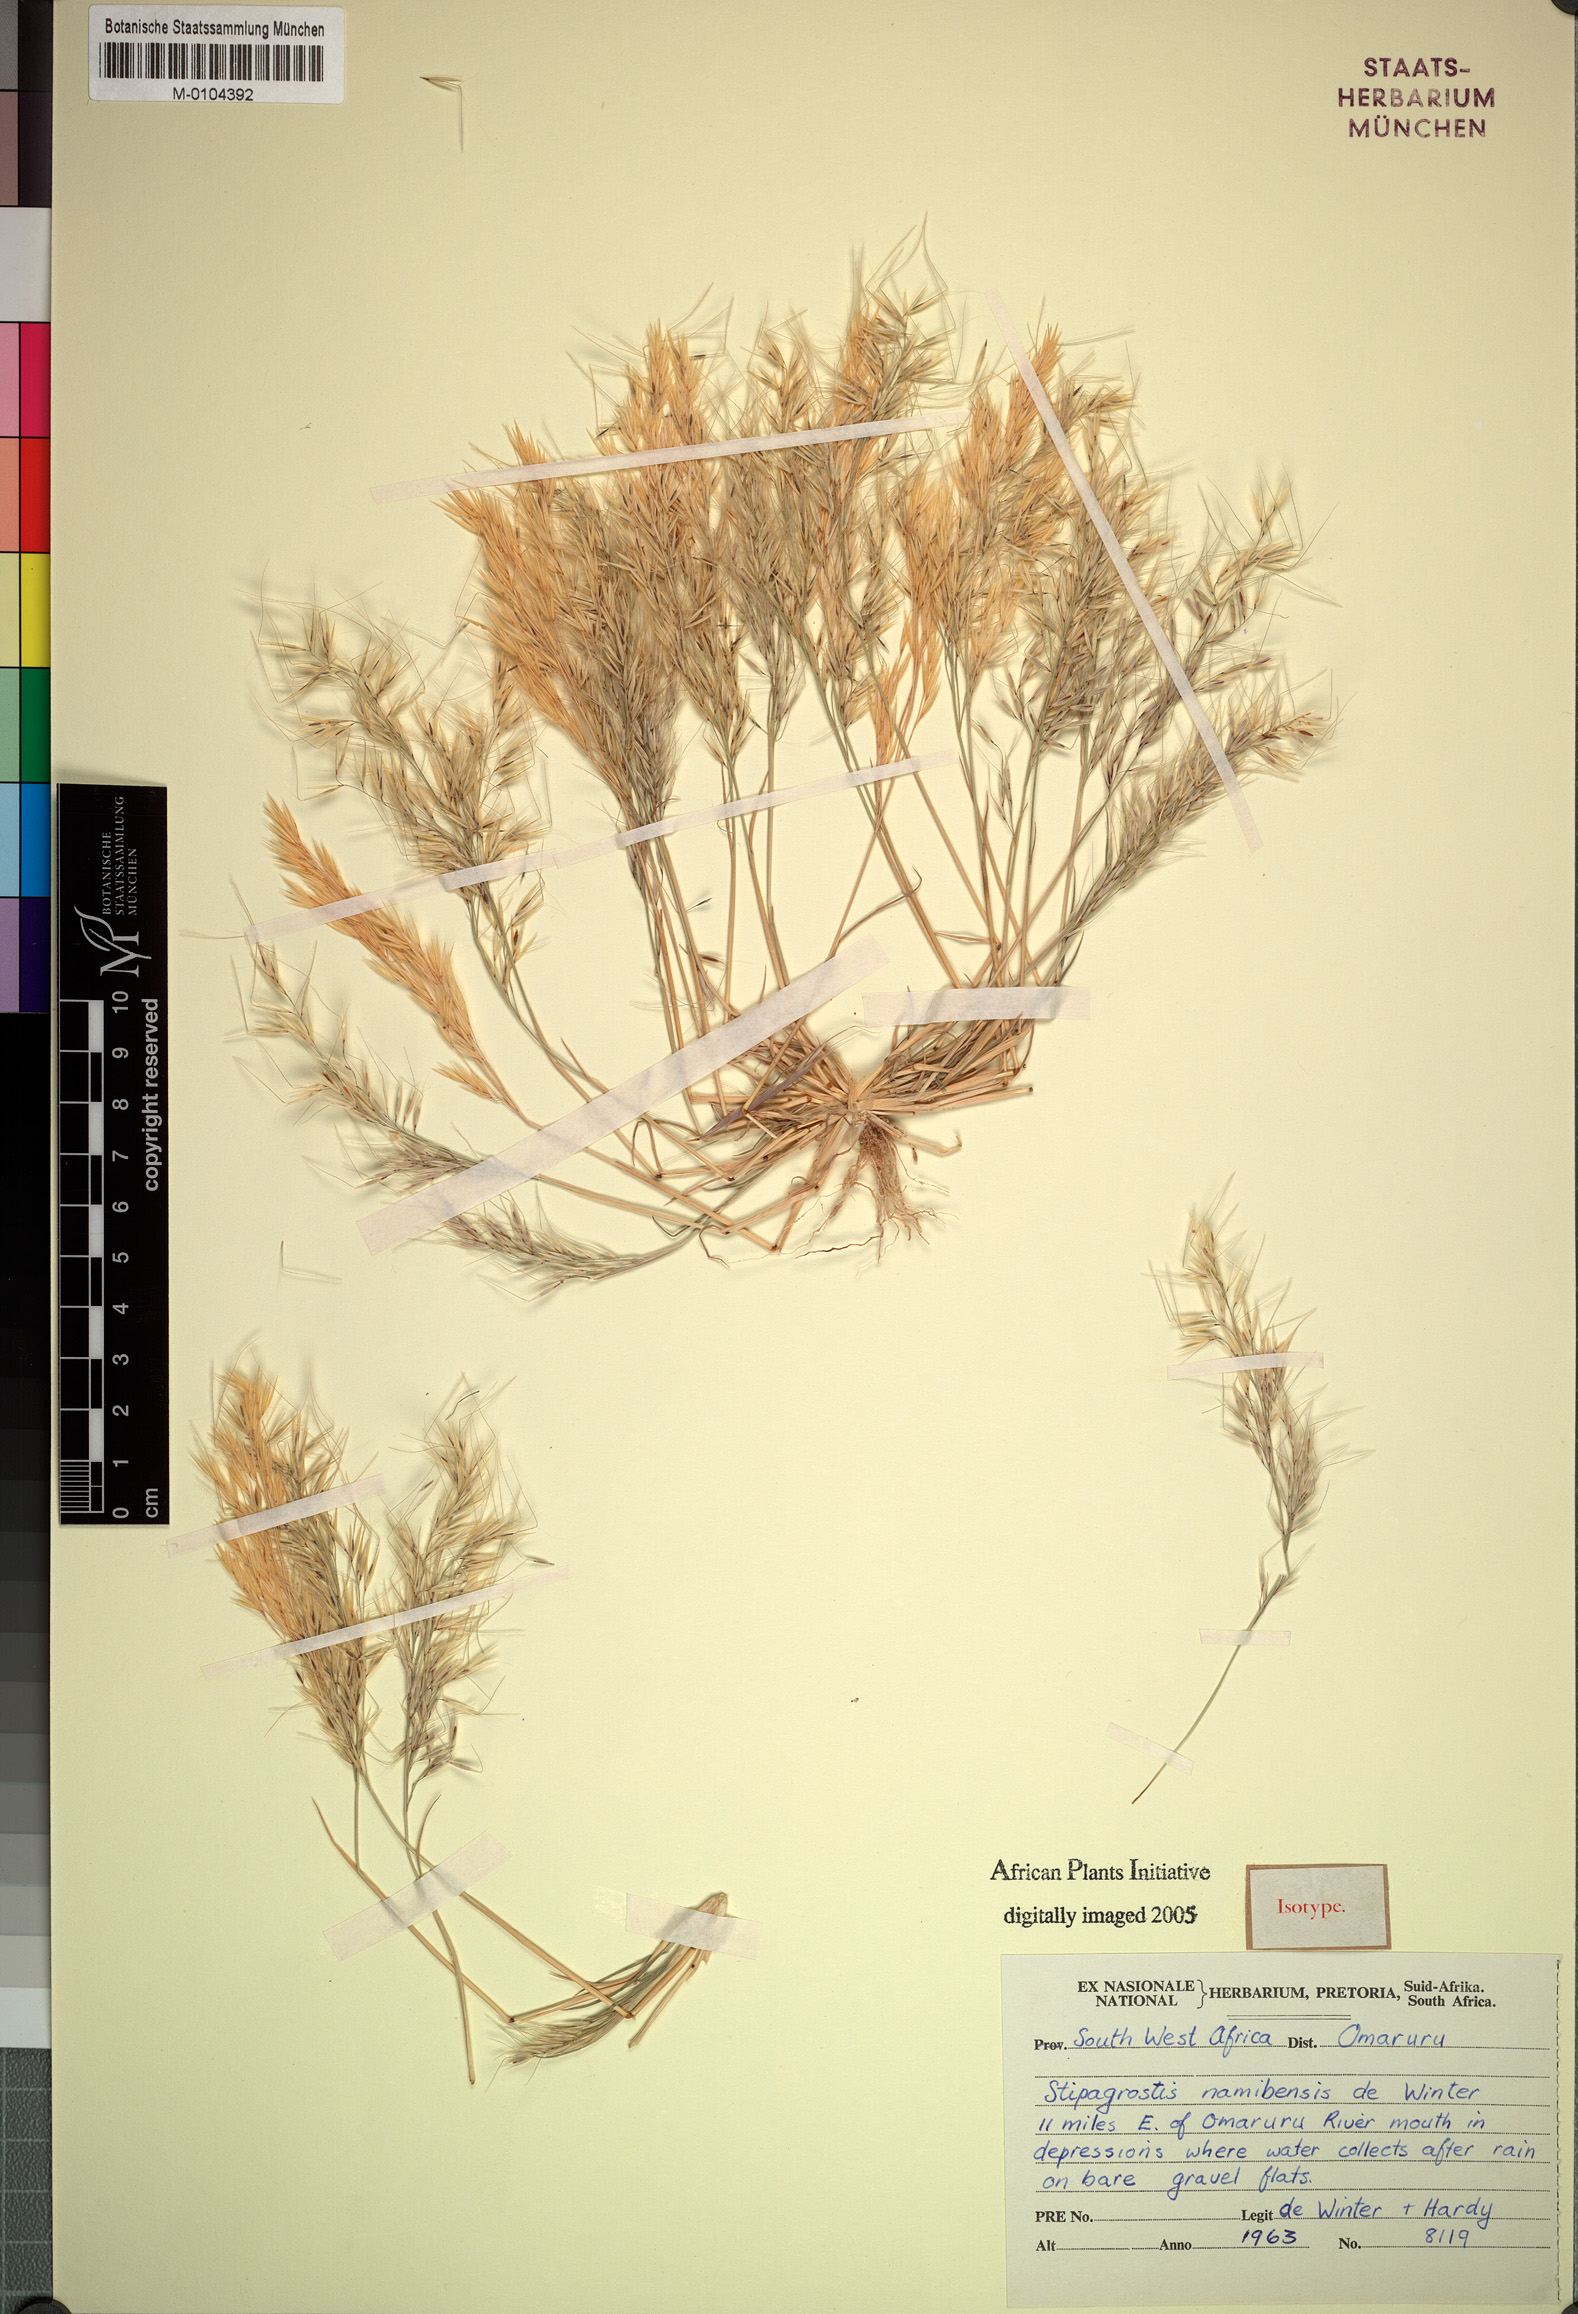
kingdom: Plantae
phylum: Tracheophyta
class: Liliopsida
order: Poales
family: Poaceae
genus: Stipagrostis
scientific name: Stipagrostis namibensis
